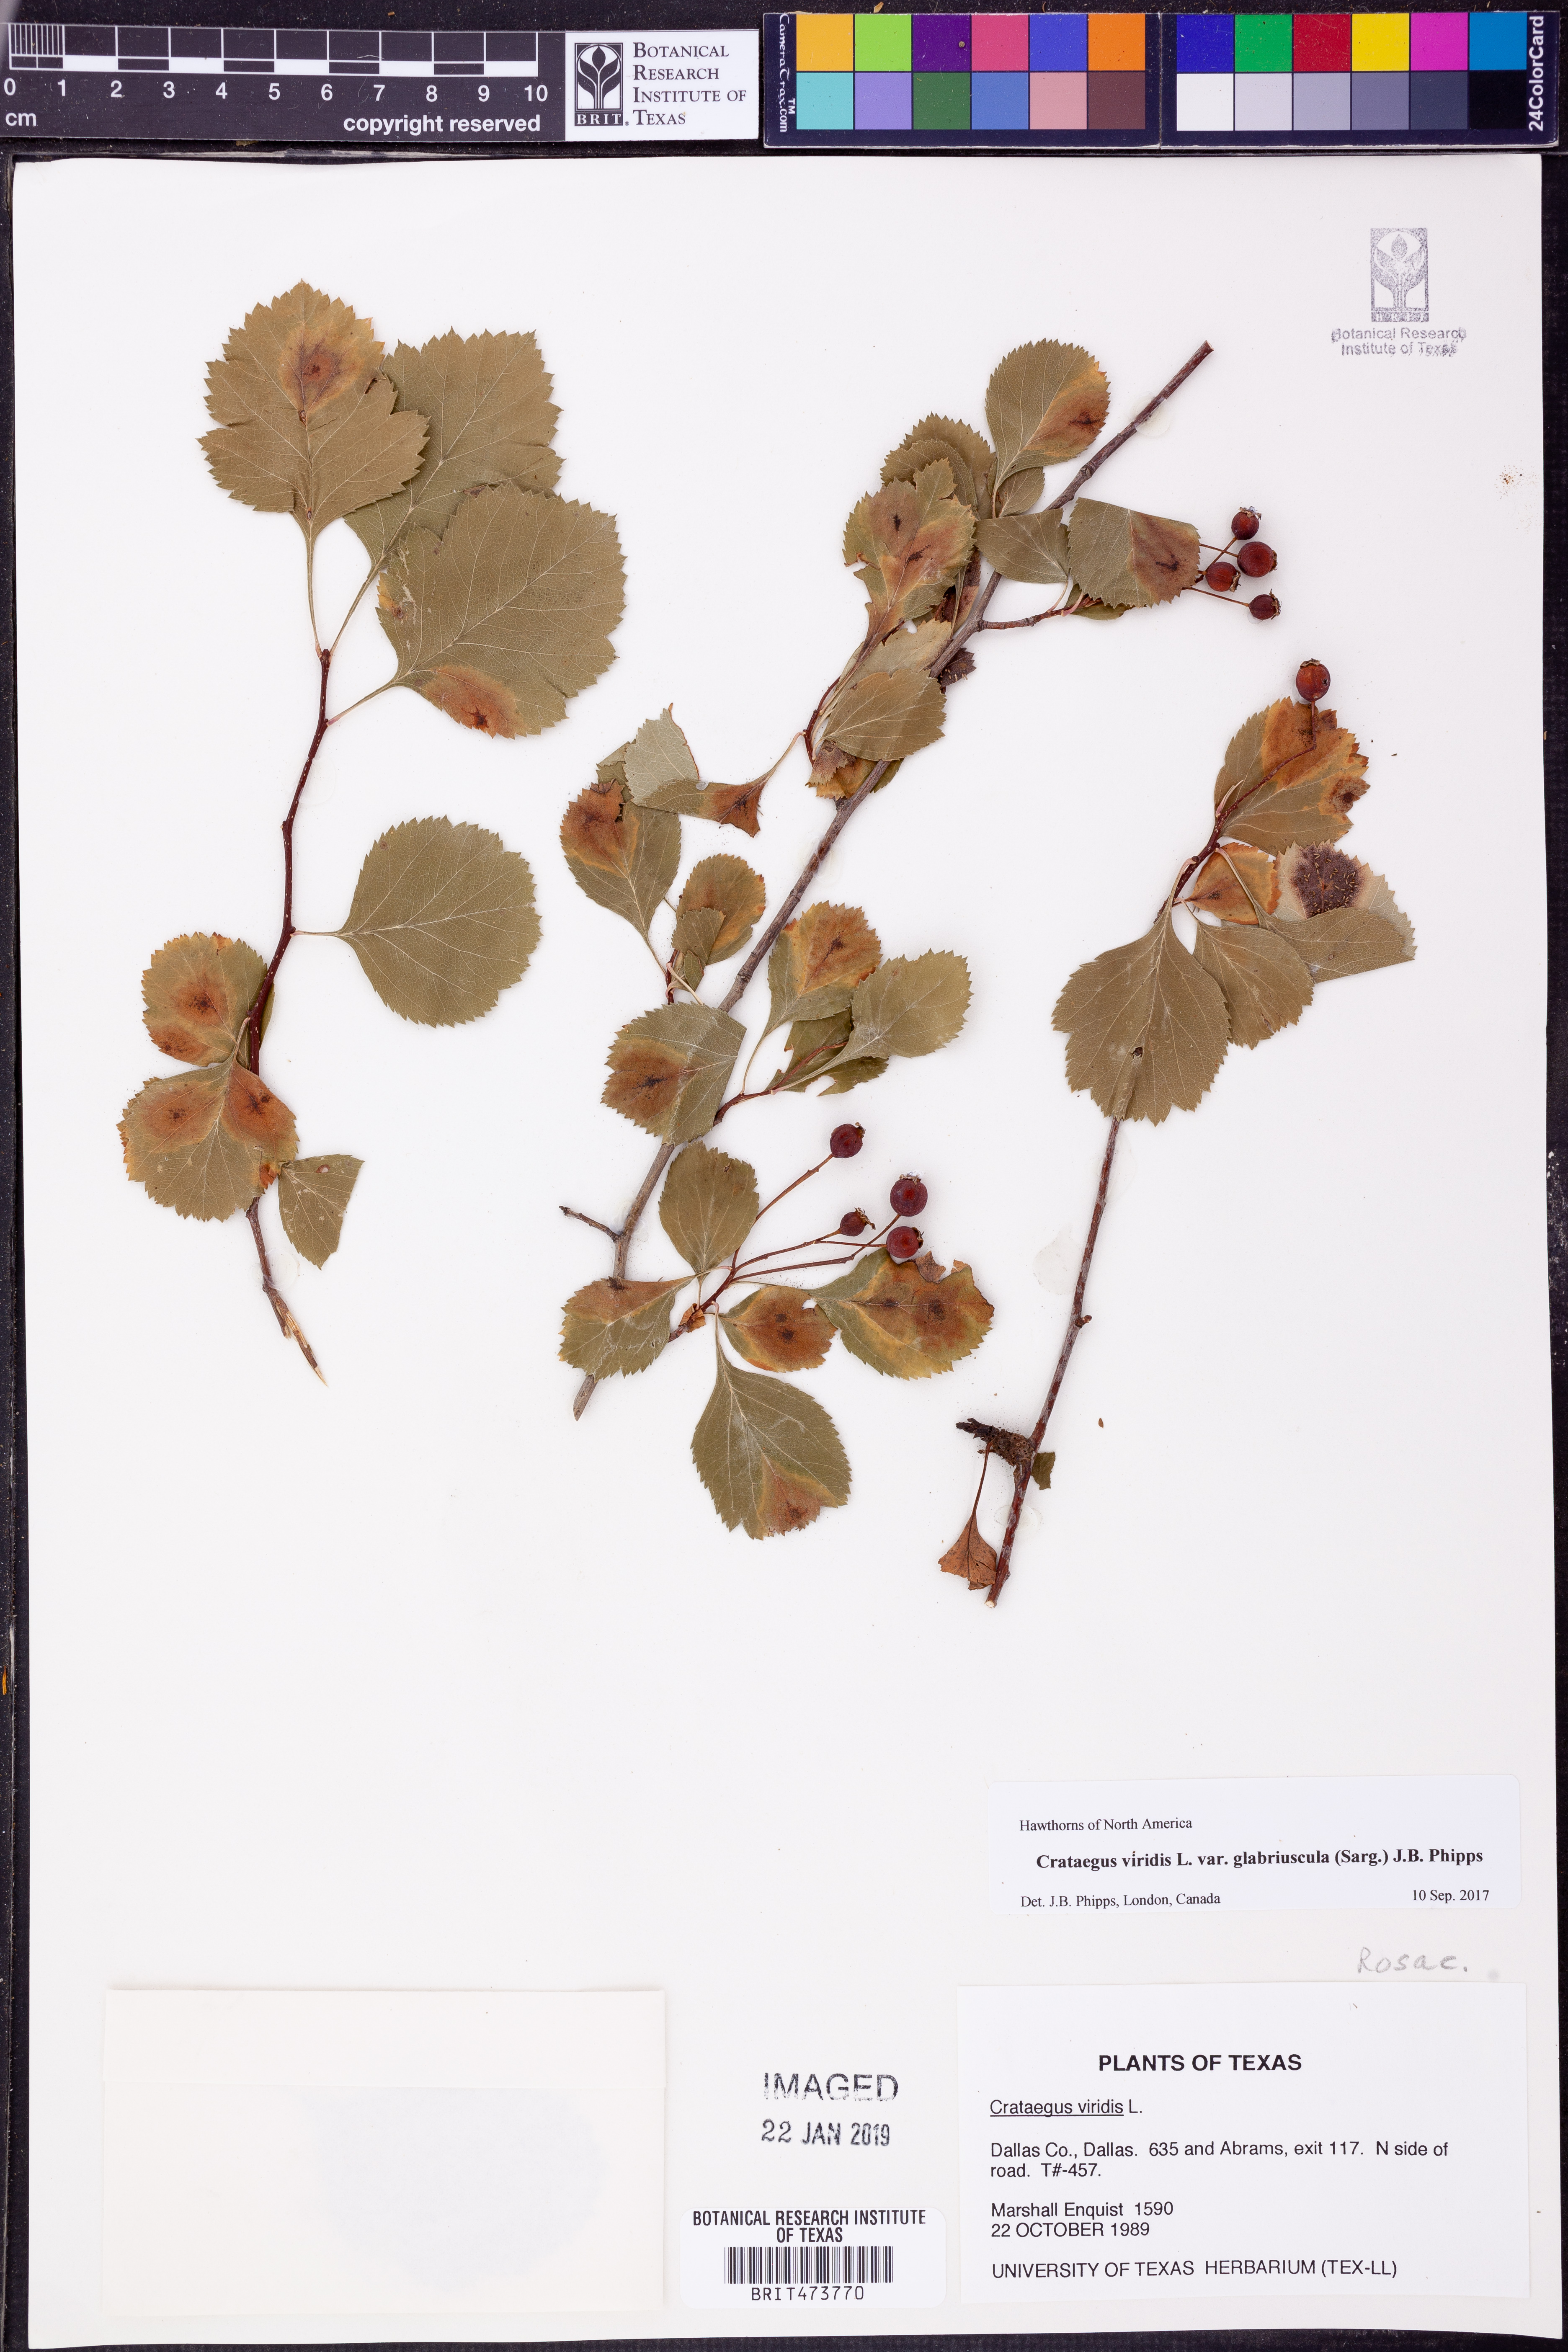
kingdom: Plantae
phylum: Tracheophyta
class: Magnoliopsida
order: Rosales
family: Rosaceae
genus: Crataegus
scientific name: Crataegus viridis
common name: Southernthorn
